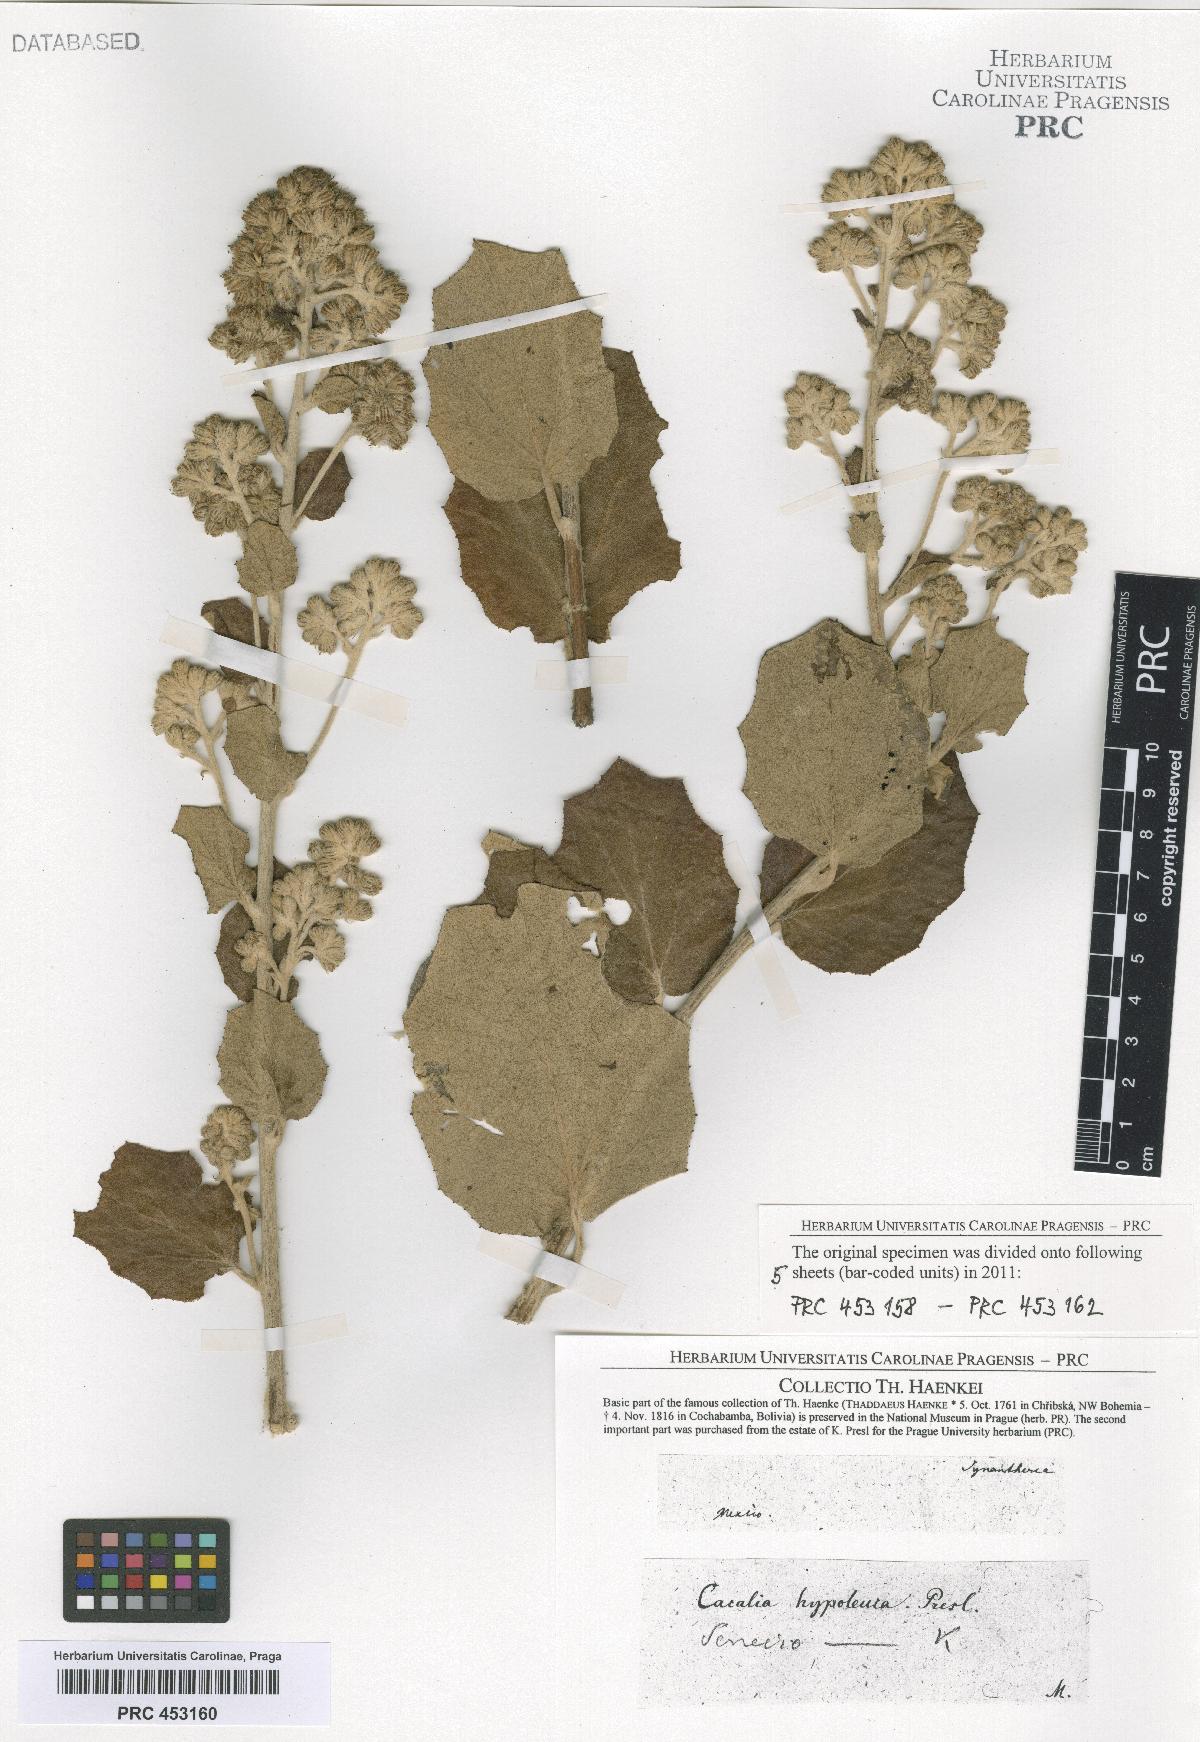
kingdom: Plantae
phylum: Tracheophyta
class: Magnoliopsida
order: Asterales
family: Asteraceae
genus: Senecio
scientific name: Senecio
